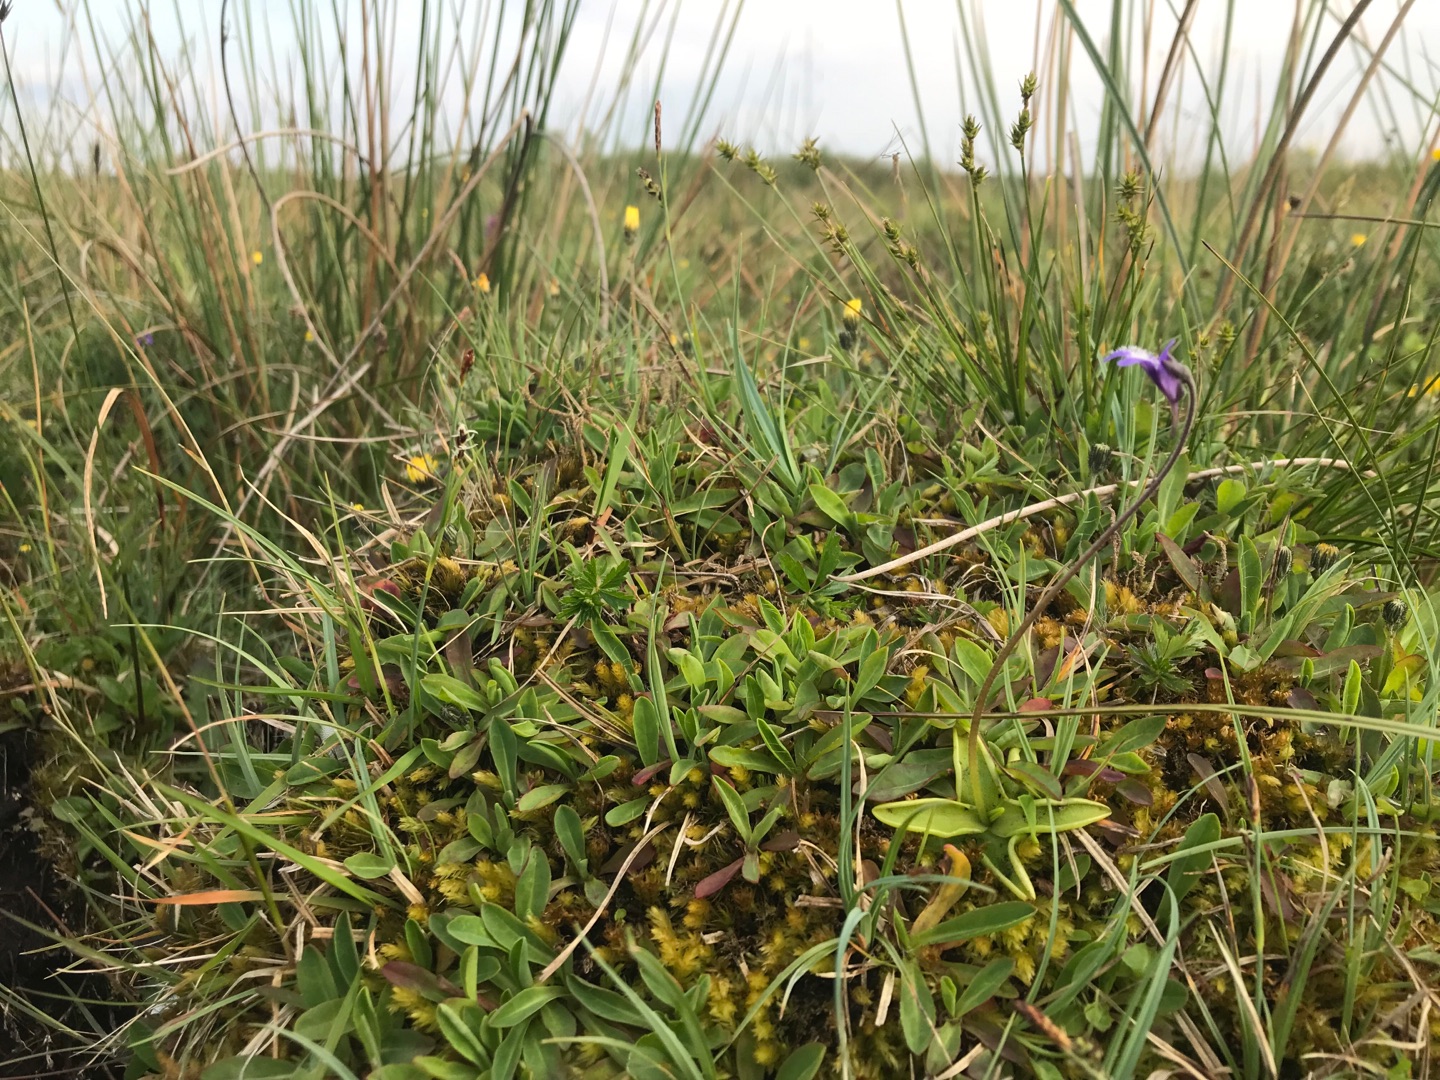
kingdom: Plantae
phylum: Tracheophyta
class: Magnoliopsida
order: Lamiales
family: Lentibulariaceae
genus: Pinguicula
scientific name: Pinguicula vulgaris
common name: Vibefedt
